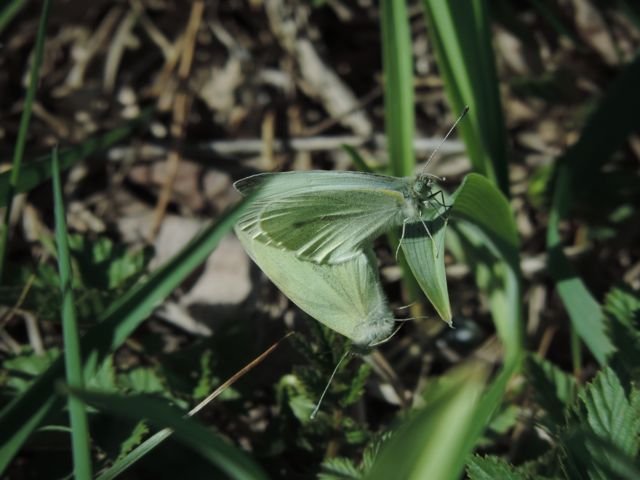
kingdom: Animalia
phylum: Arthropoda
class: Insecta
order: Lepidoptera
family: Pieridae
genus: Pieris
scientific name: Pieris rapae
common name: Cabbage White
